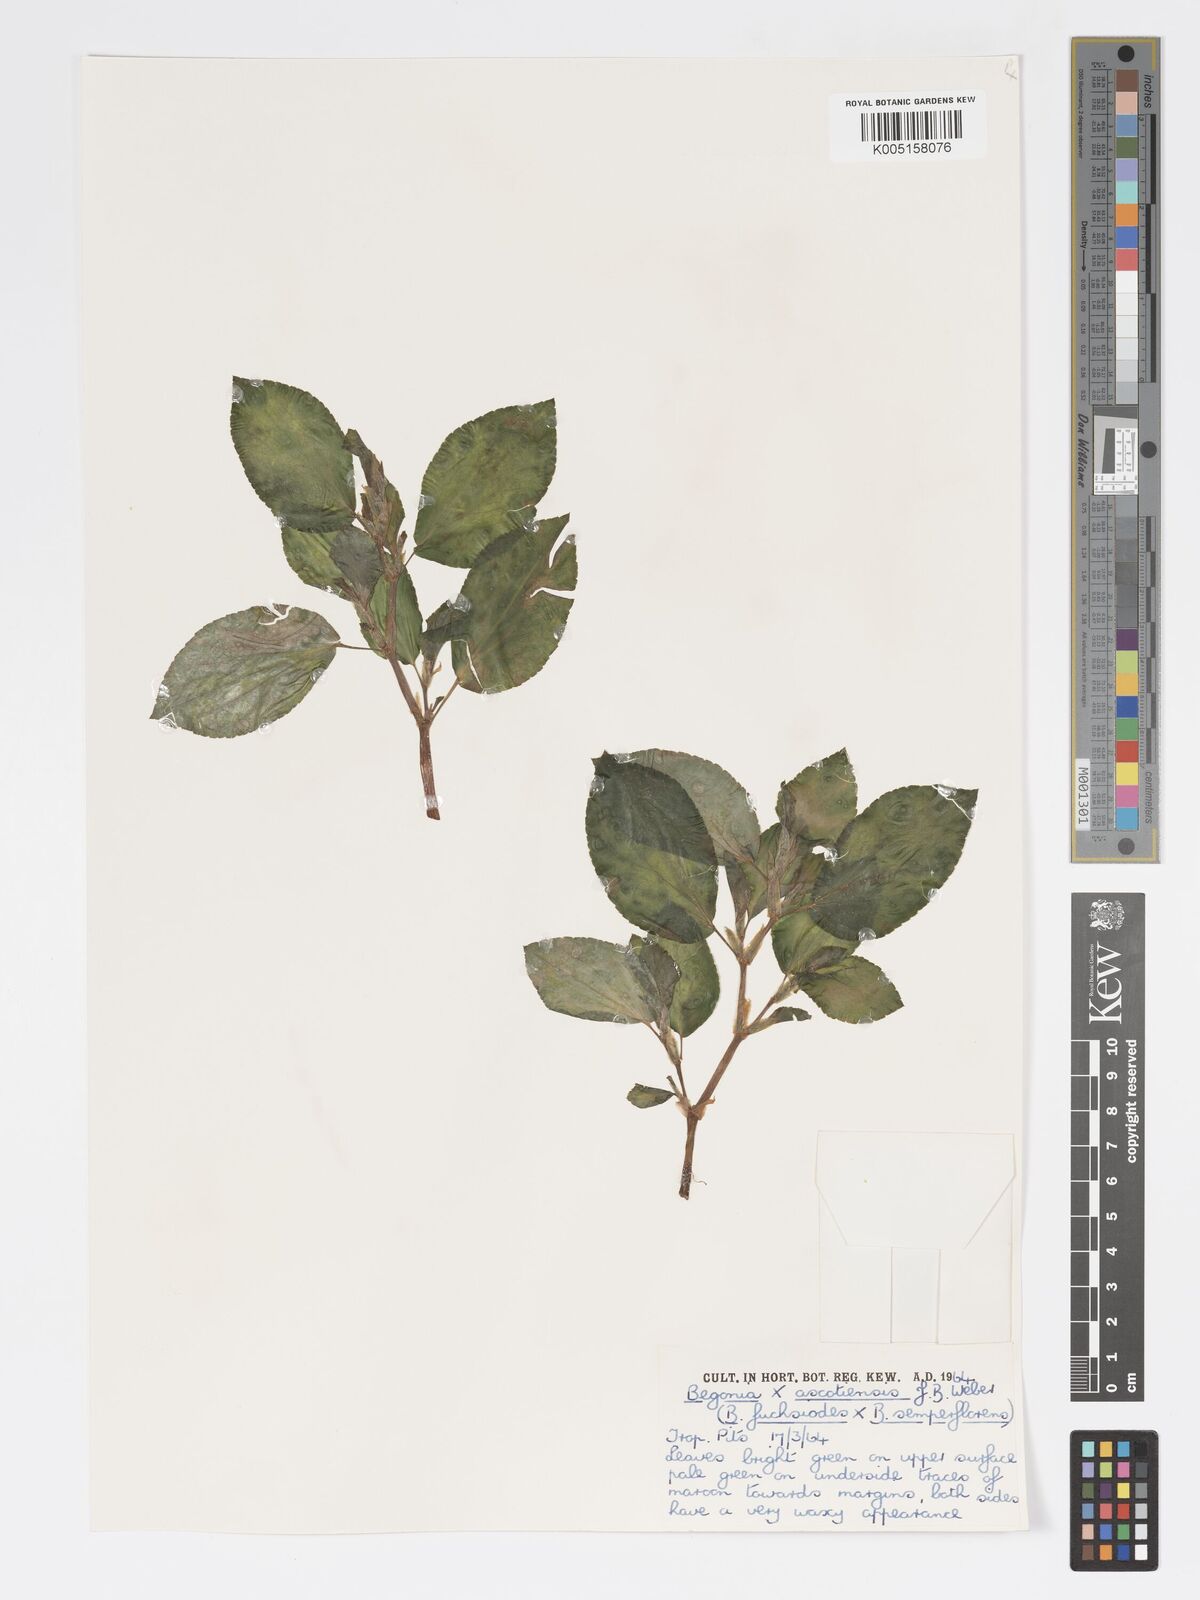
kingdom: Plantae
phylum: Tracheophyta
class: Magnoliopsida
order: Cucurbitales
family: Begoniaceae
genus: Begonia
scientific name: Begonia ascotiensis
